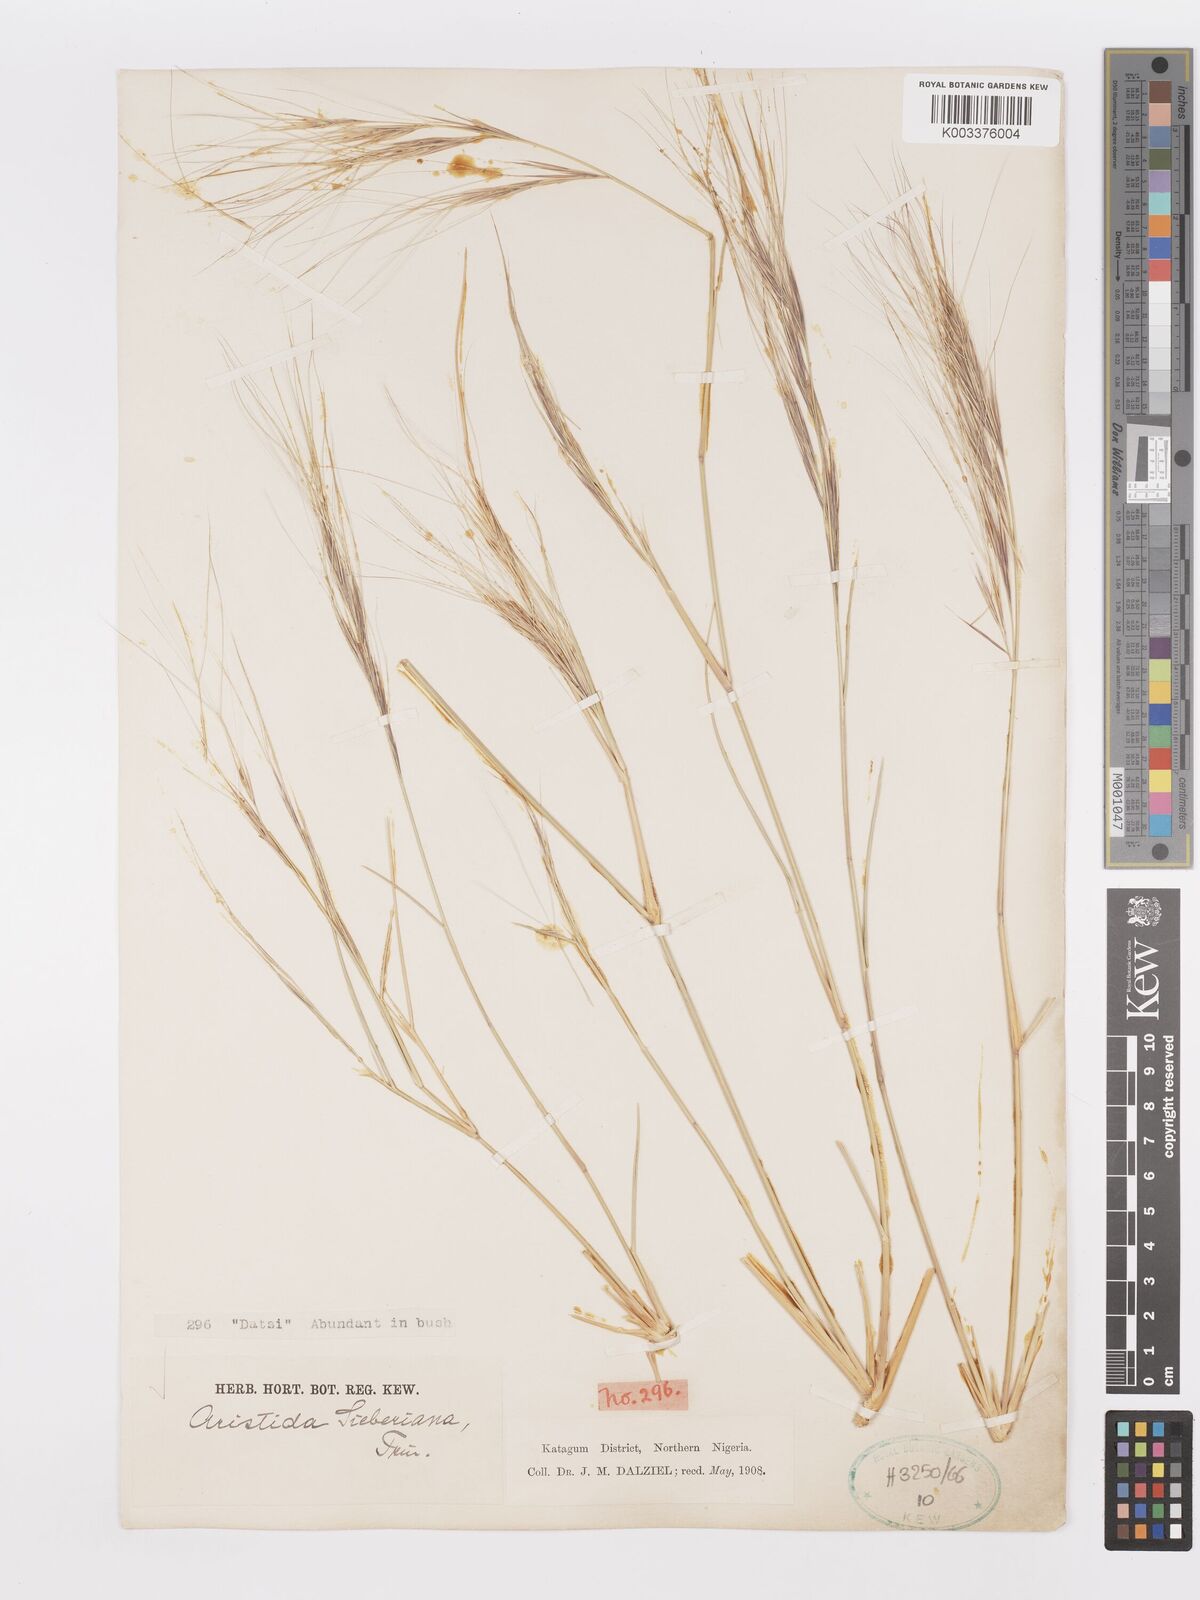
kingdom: Plantae
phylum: Tracheophyta
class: Liliopsida
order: Poales
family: Poaceae
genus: Aristida
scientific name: Aristida sieberiana
